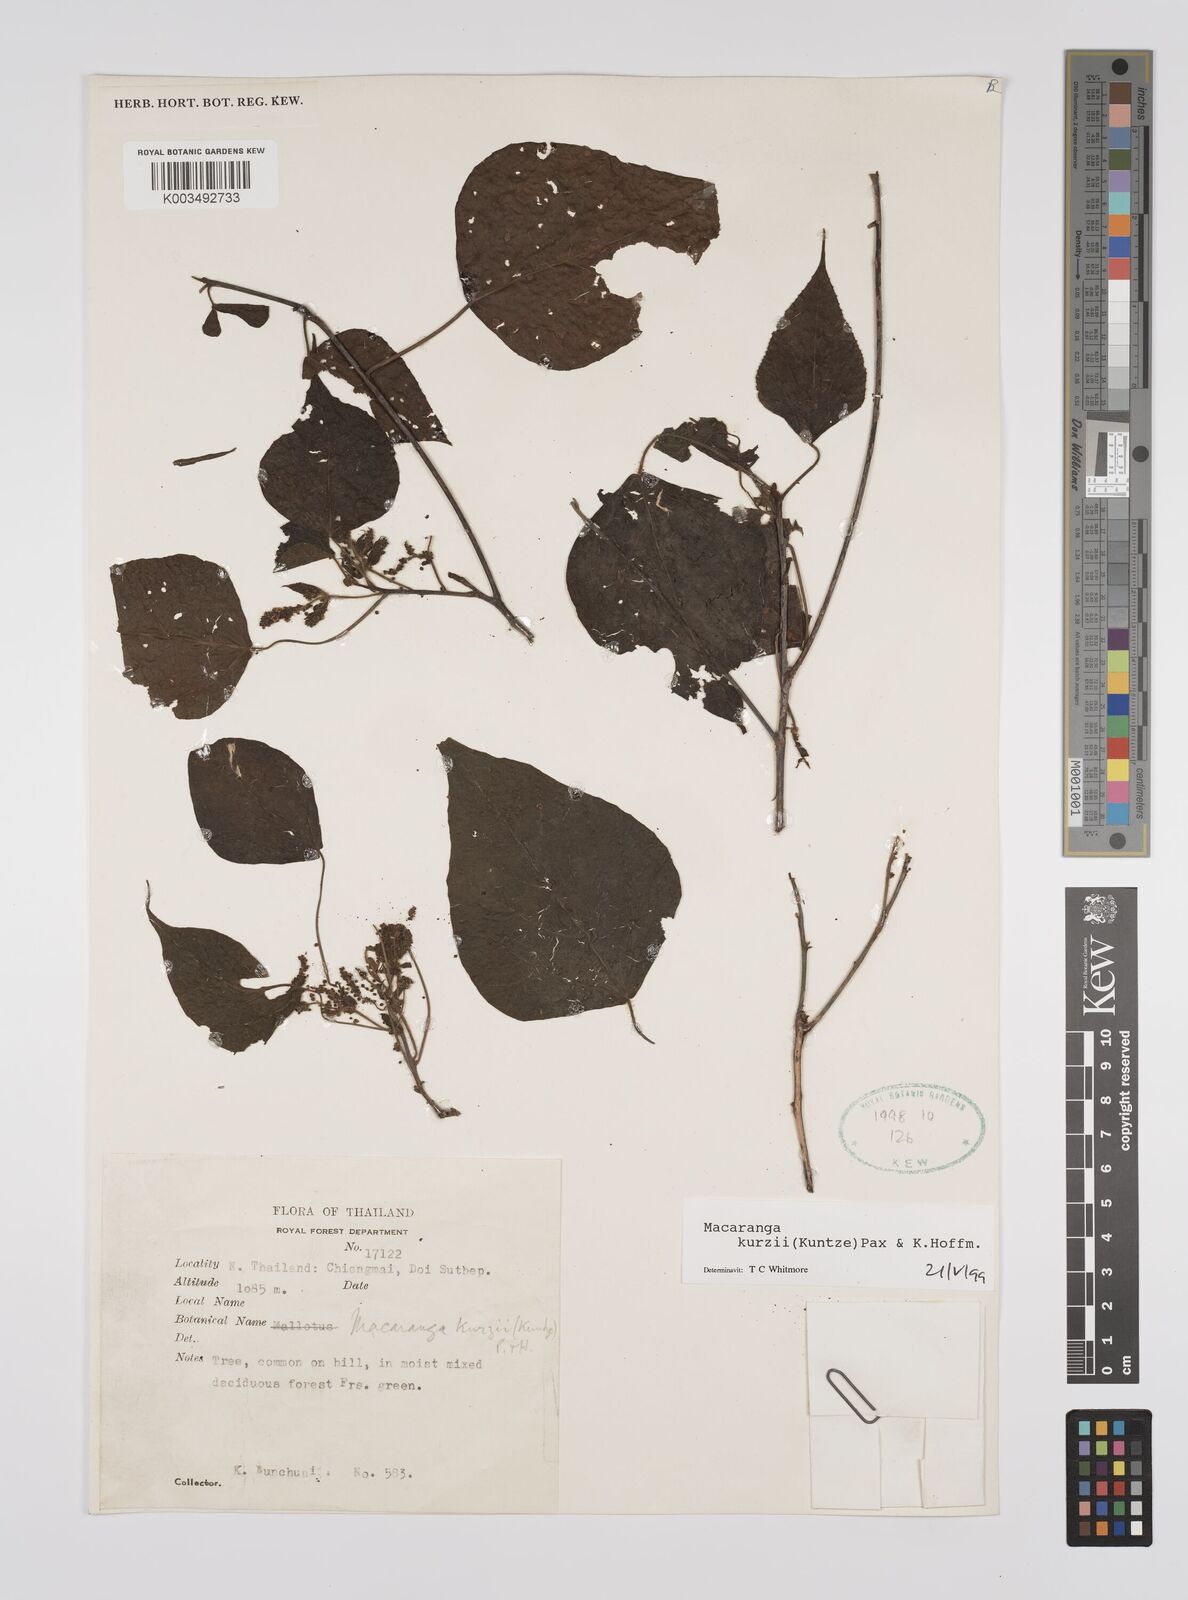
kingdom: Plantae
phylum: Tracheophyta
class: Magnoliopsida
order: Malpighiales
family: Euphorbiaceae
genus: Macaranga
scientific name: Macaranga kurzii
